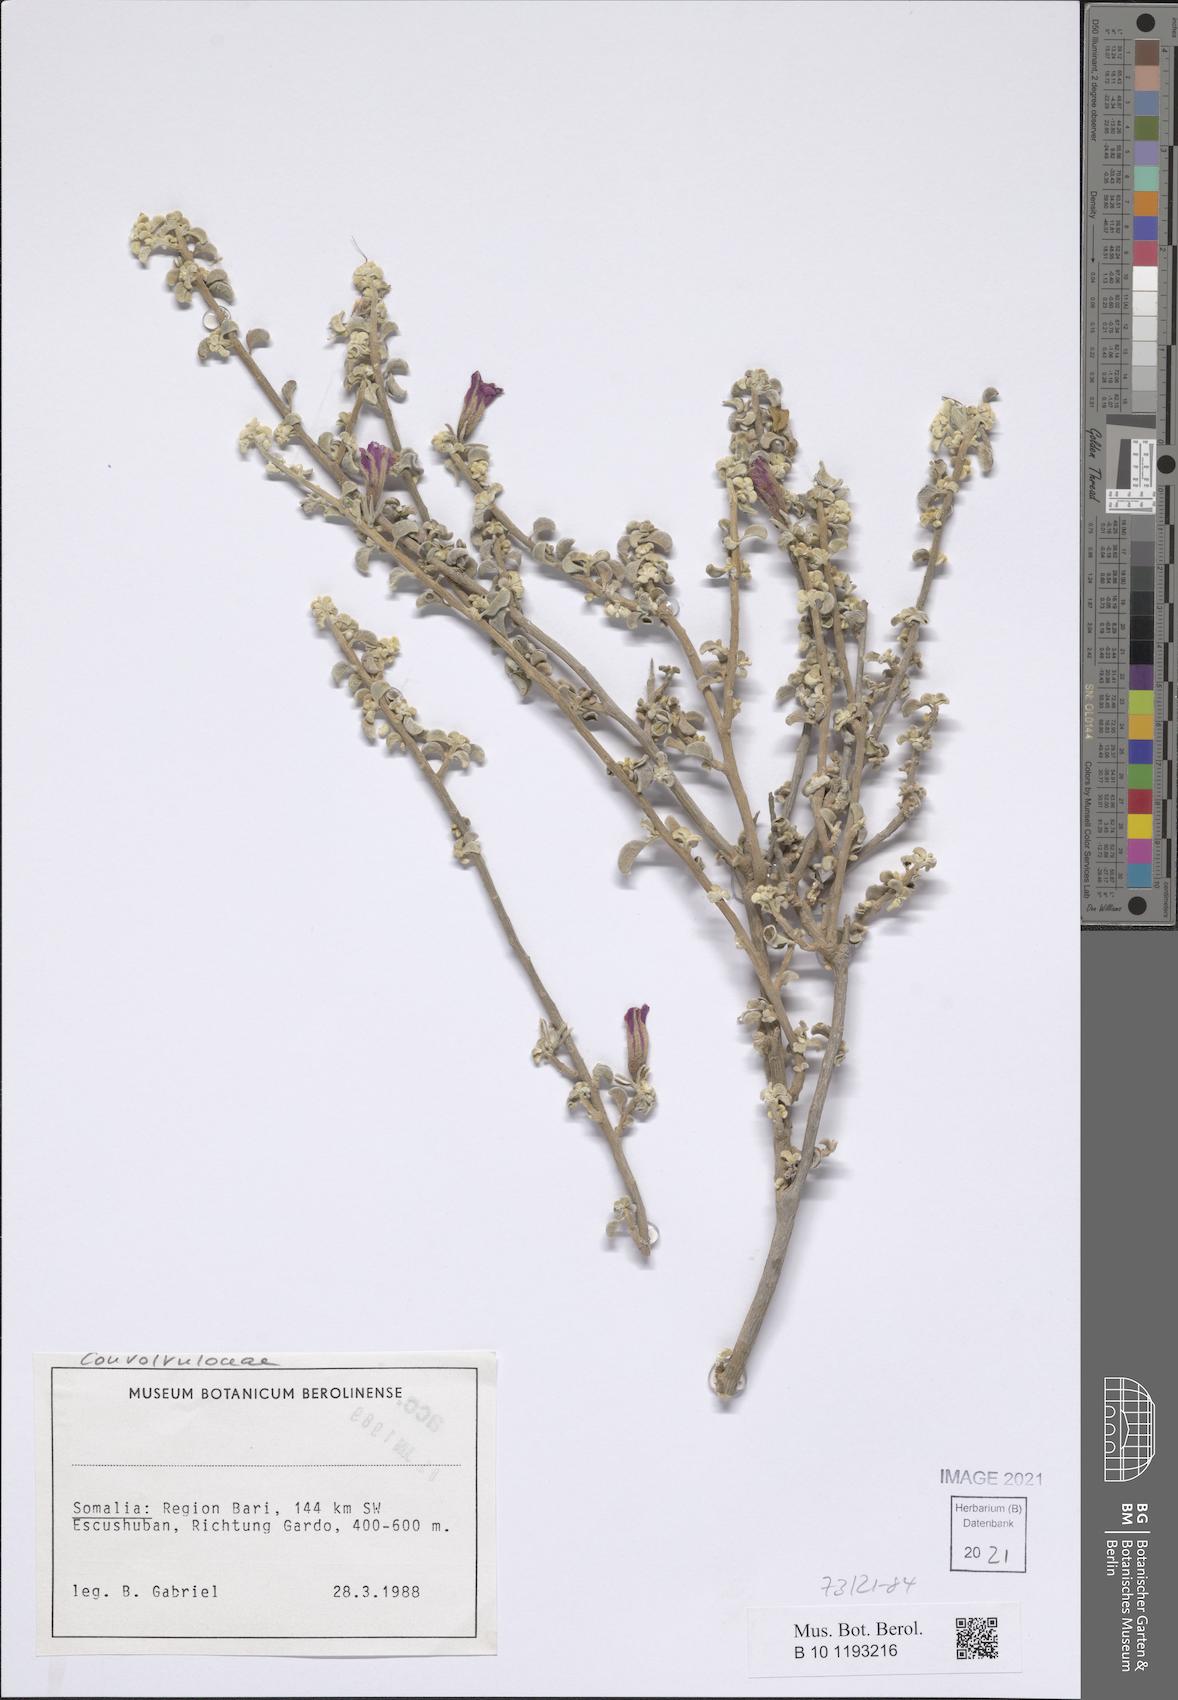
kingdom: Plantae
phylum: Tracheophyta
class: Magnoliopsida
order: Solanales
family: Convolvulaceae
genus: Ipomoea
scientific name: Ipomoea cicatricosa
